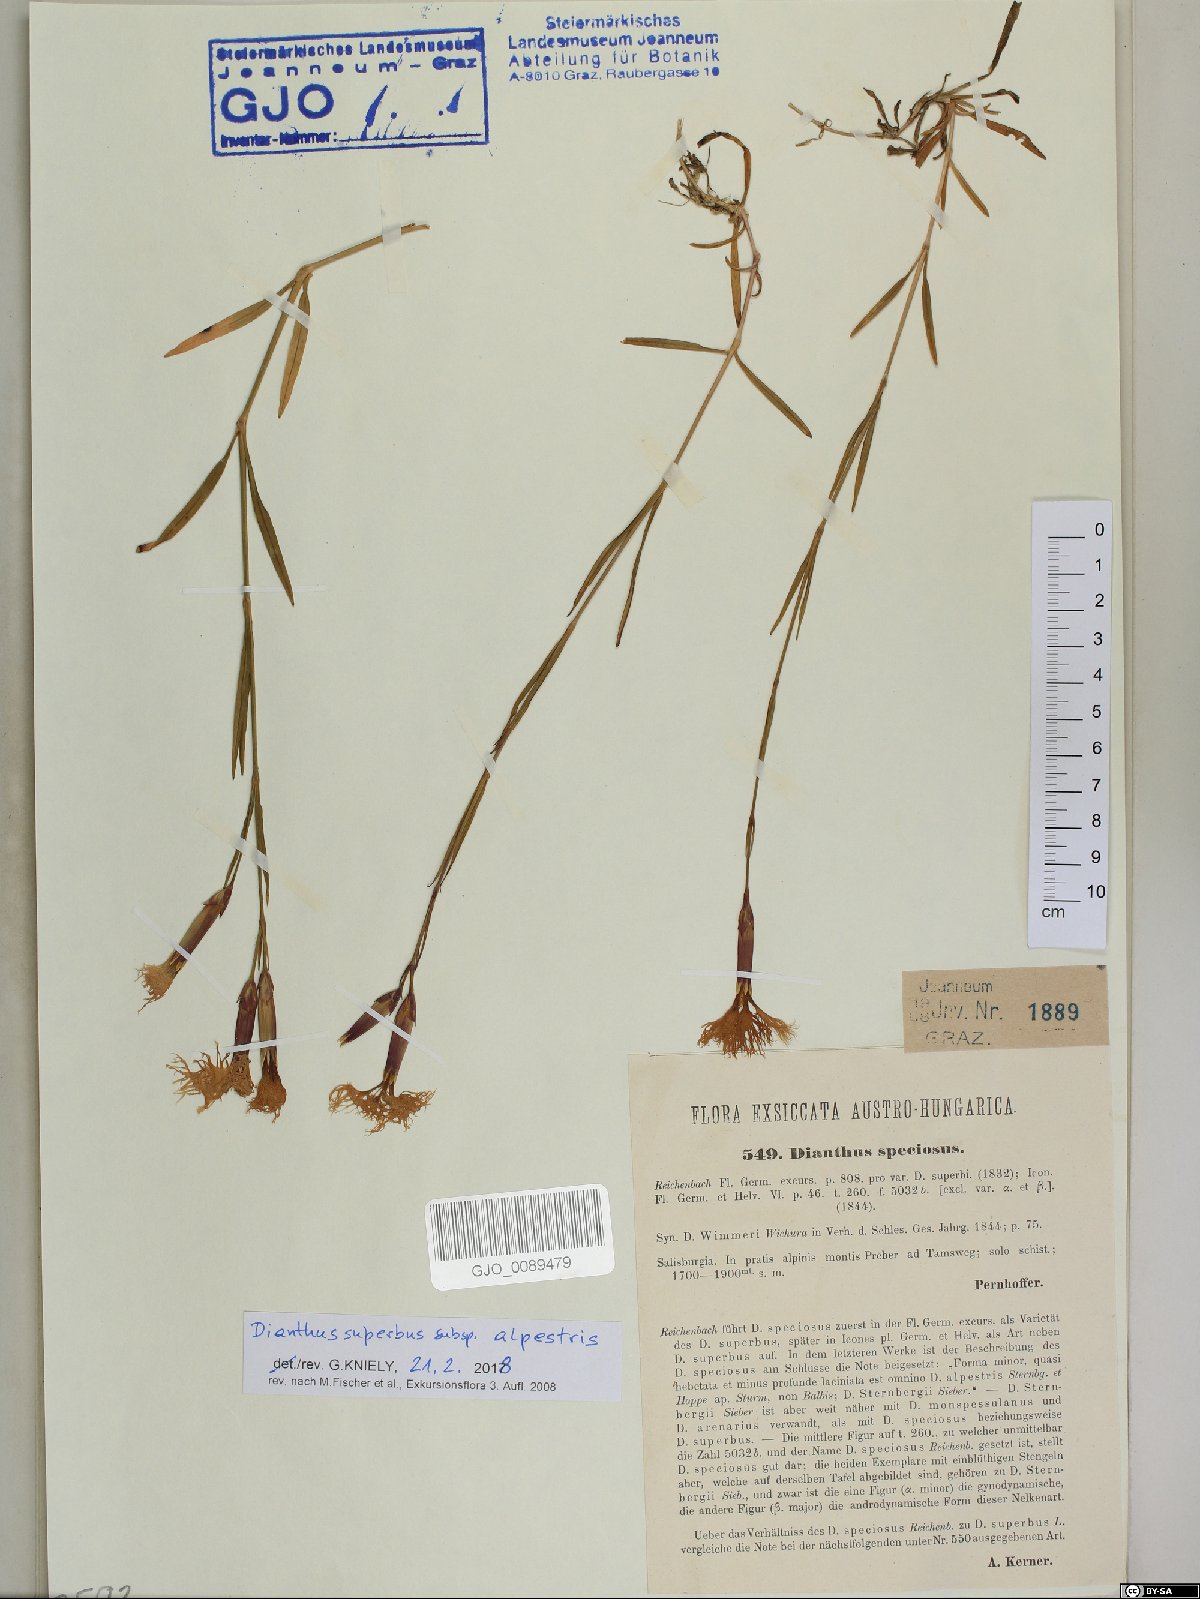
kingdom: Plantae
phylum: Tracheophyta
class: Magnoliopsida
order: Caryophyllales
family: Caryophyllaceae
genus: Dianthus
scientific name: Dianthus superbus
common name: Fringed pink
